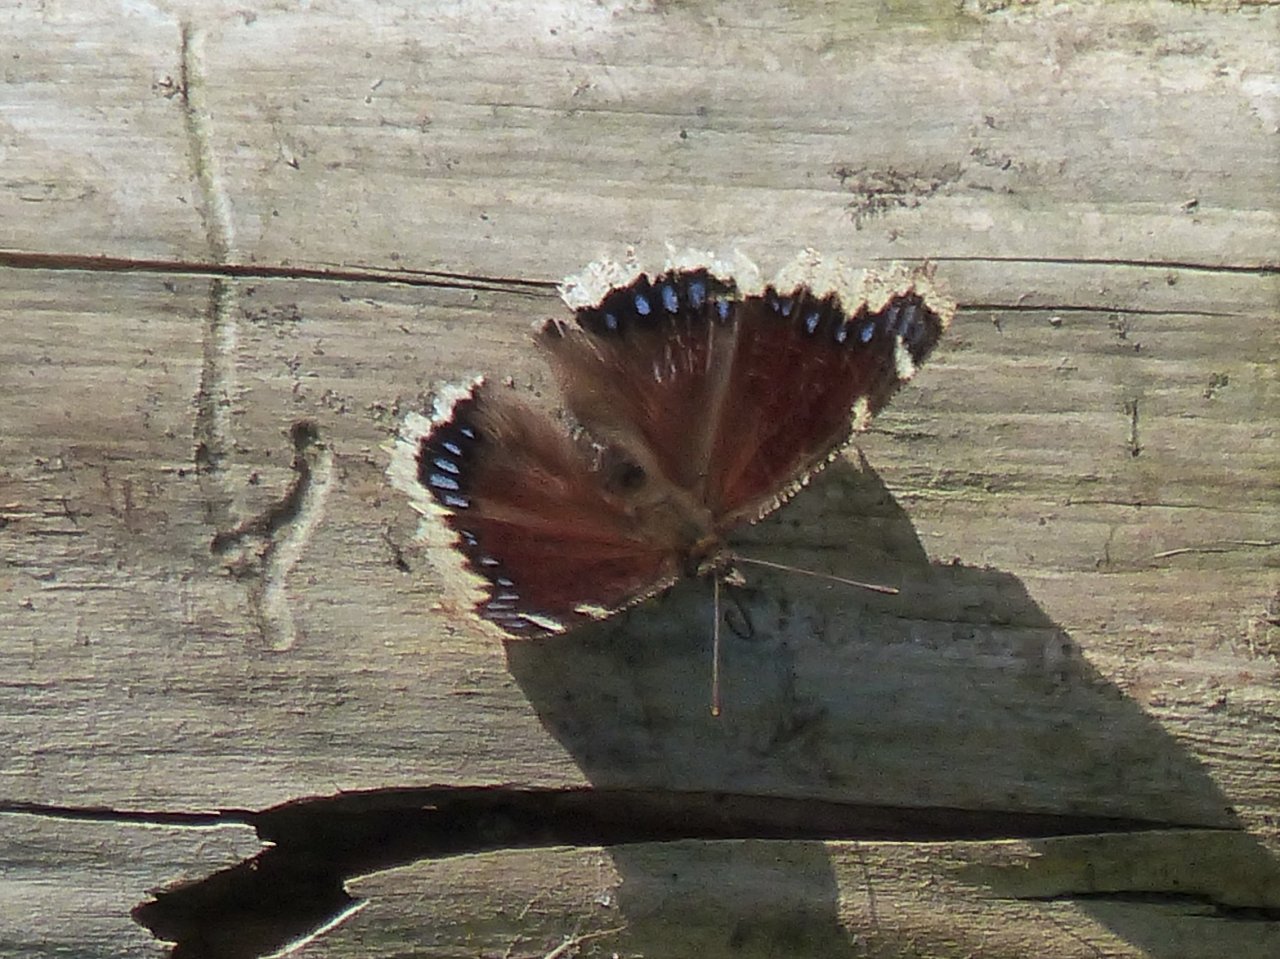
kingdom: Animalia
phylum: Arthropoda
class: Insecta
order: Lepidoptera
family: Nymphalidae
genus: Nymphalis
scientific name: Nymphalis antiopa
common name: Mourning Cloak
